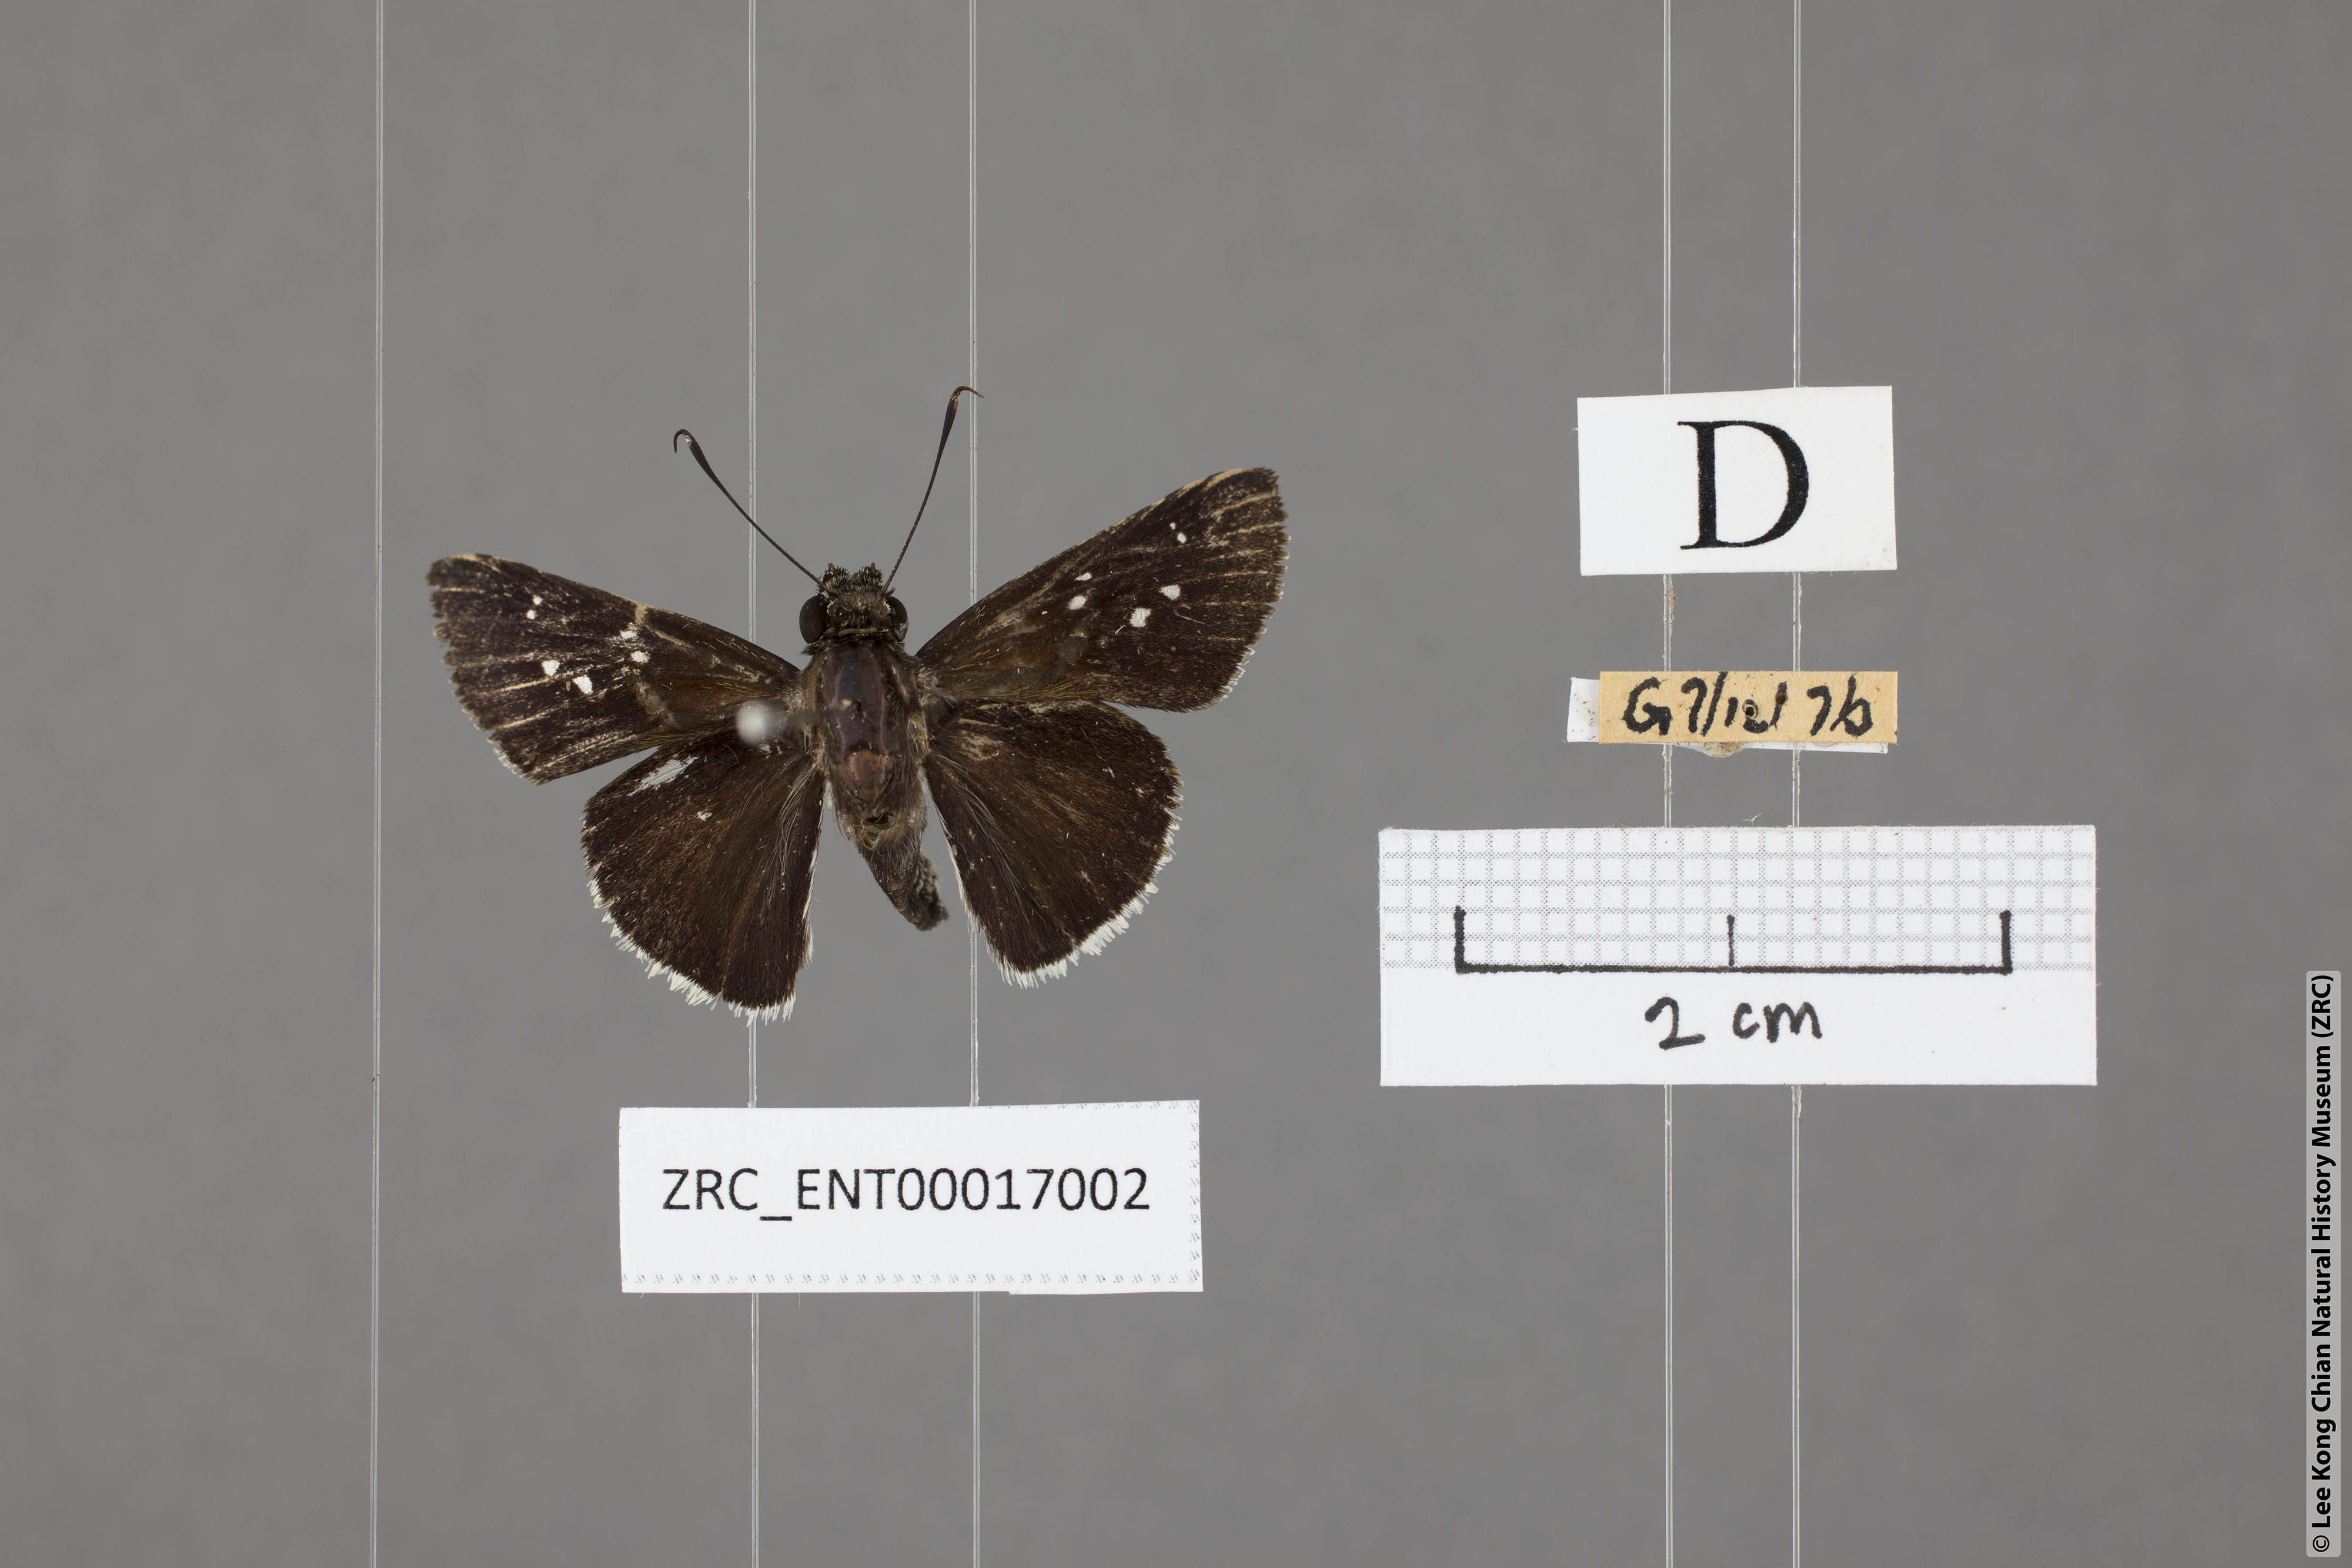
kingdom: Animalia
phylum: Arthropoda
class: Insecta
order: Lepidoptera
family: Hesperiidae
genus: Halpe
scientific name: Halpe insignis
